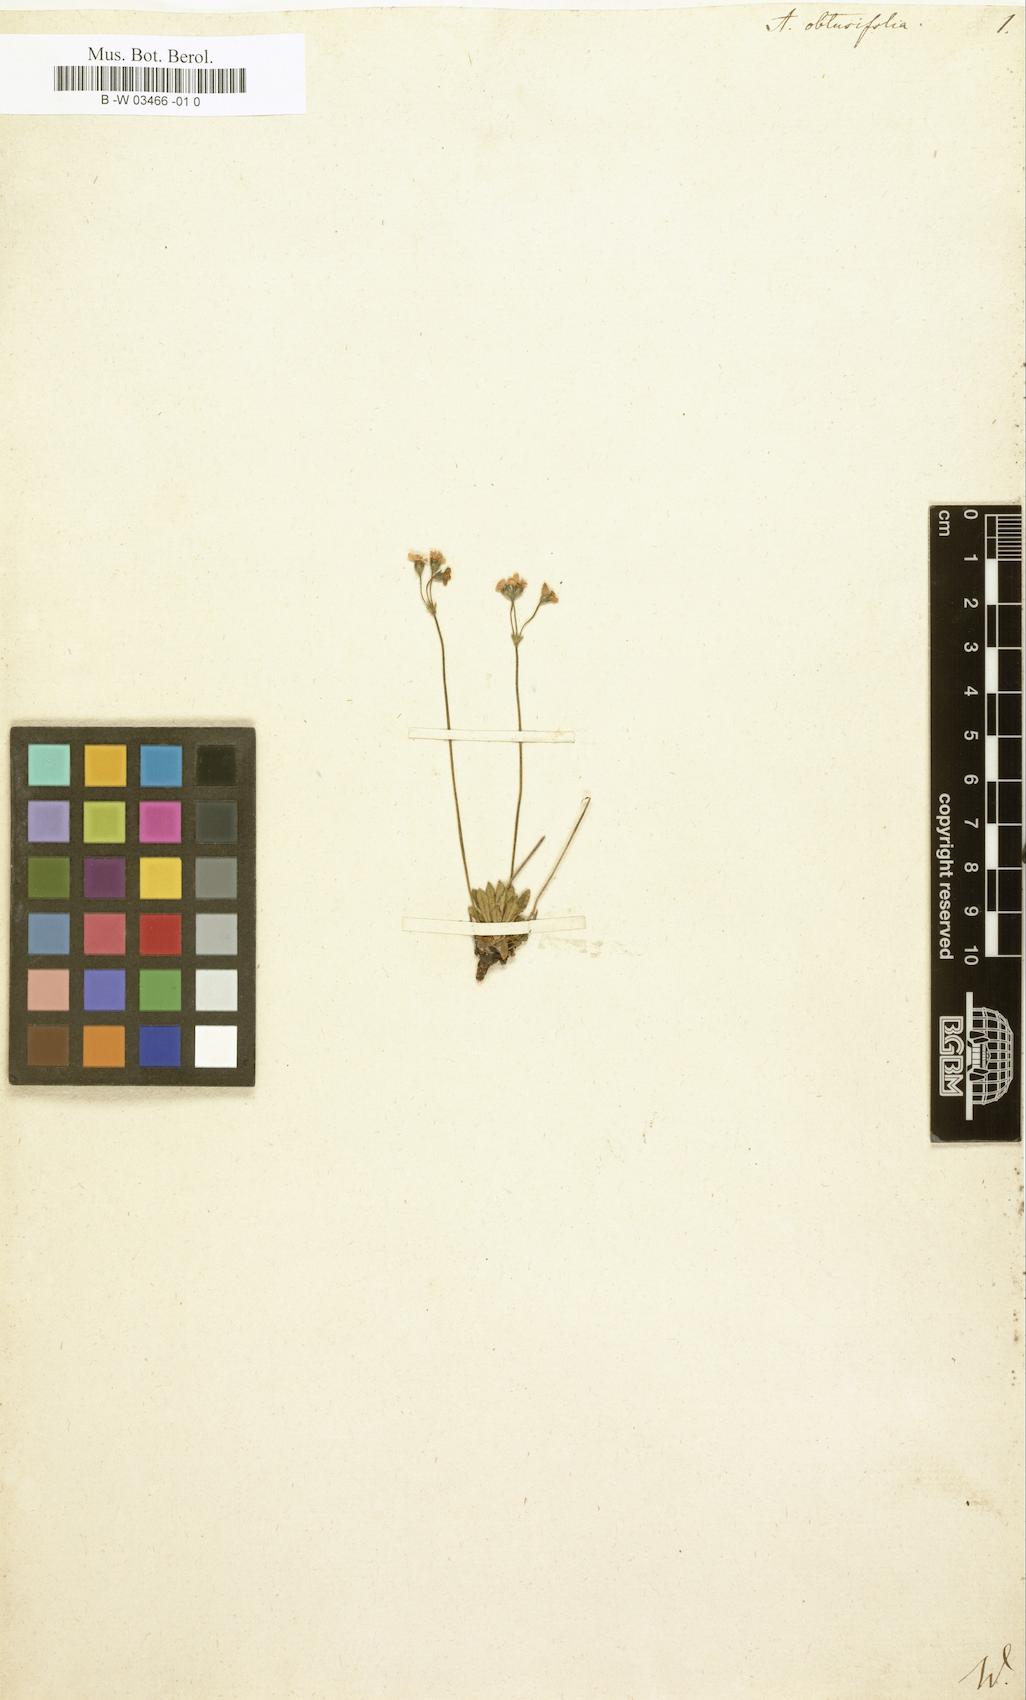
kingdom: Plantae
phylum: Tracheophyta
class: Magnoliopsida
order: Ericales
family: Primulaceae
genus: Androsace
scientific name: Androsace obtusifolia
